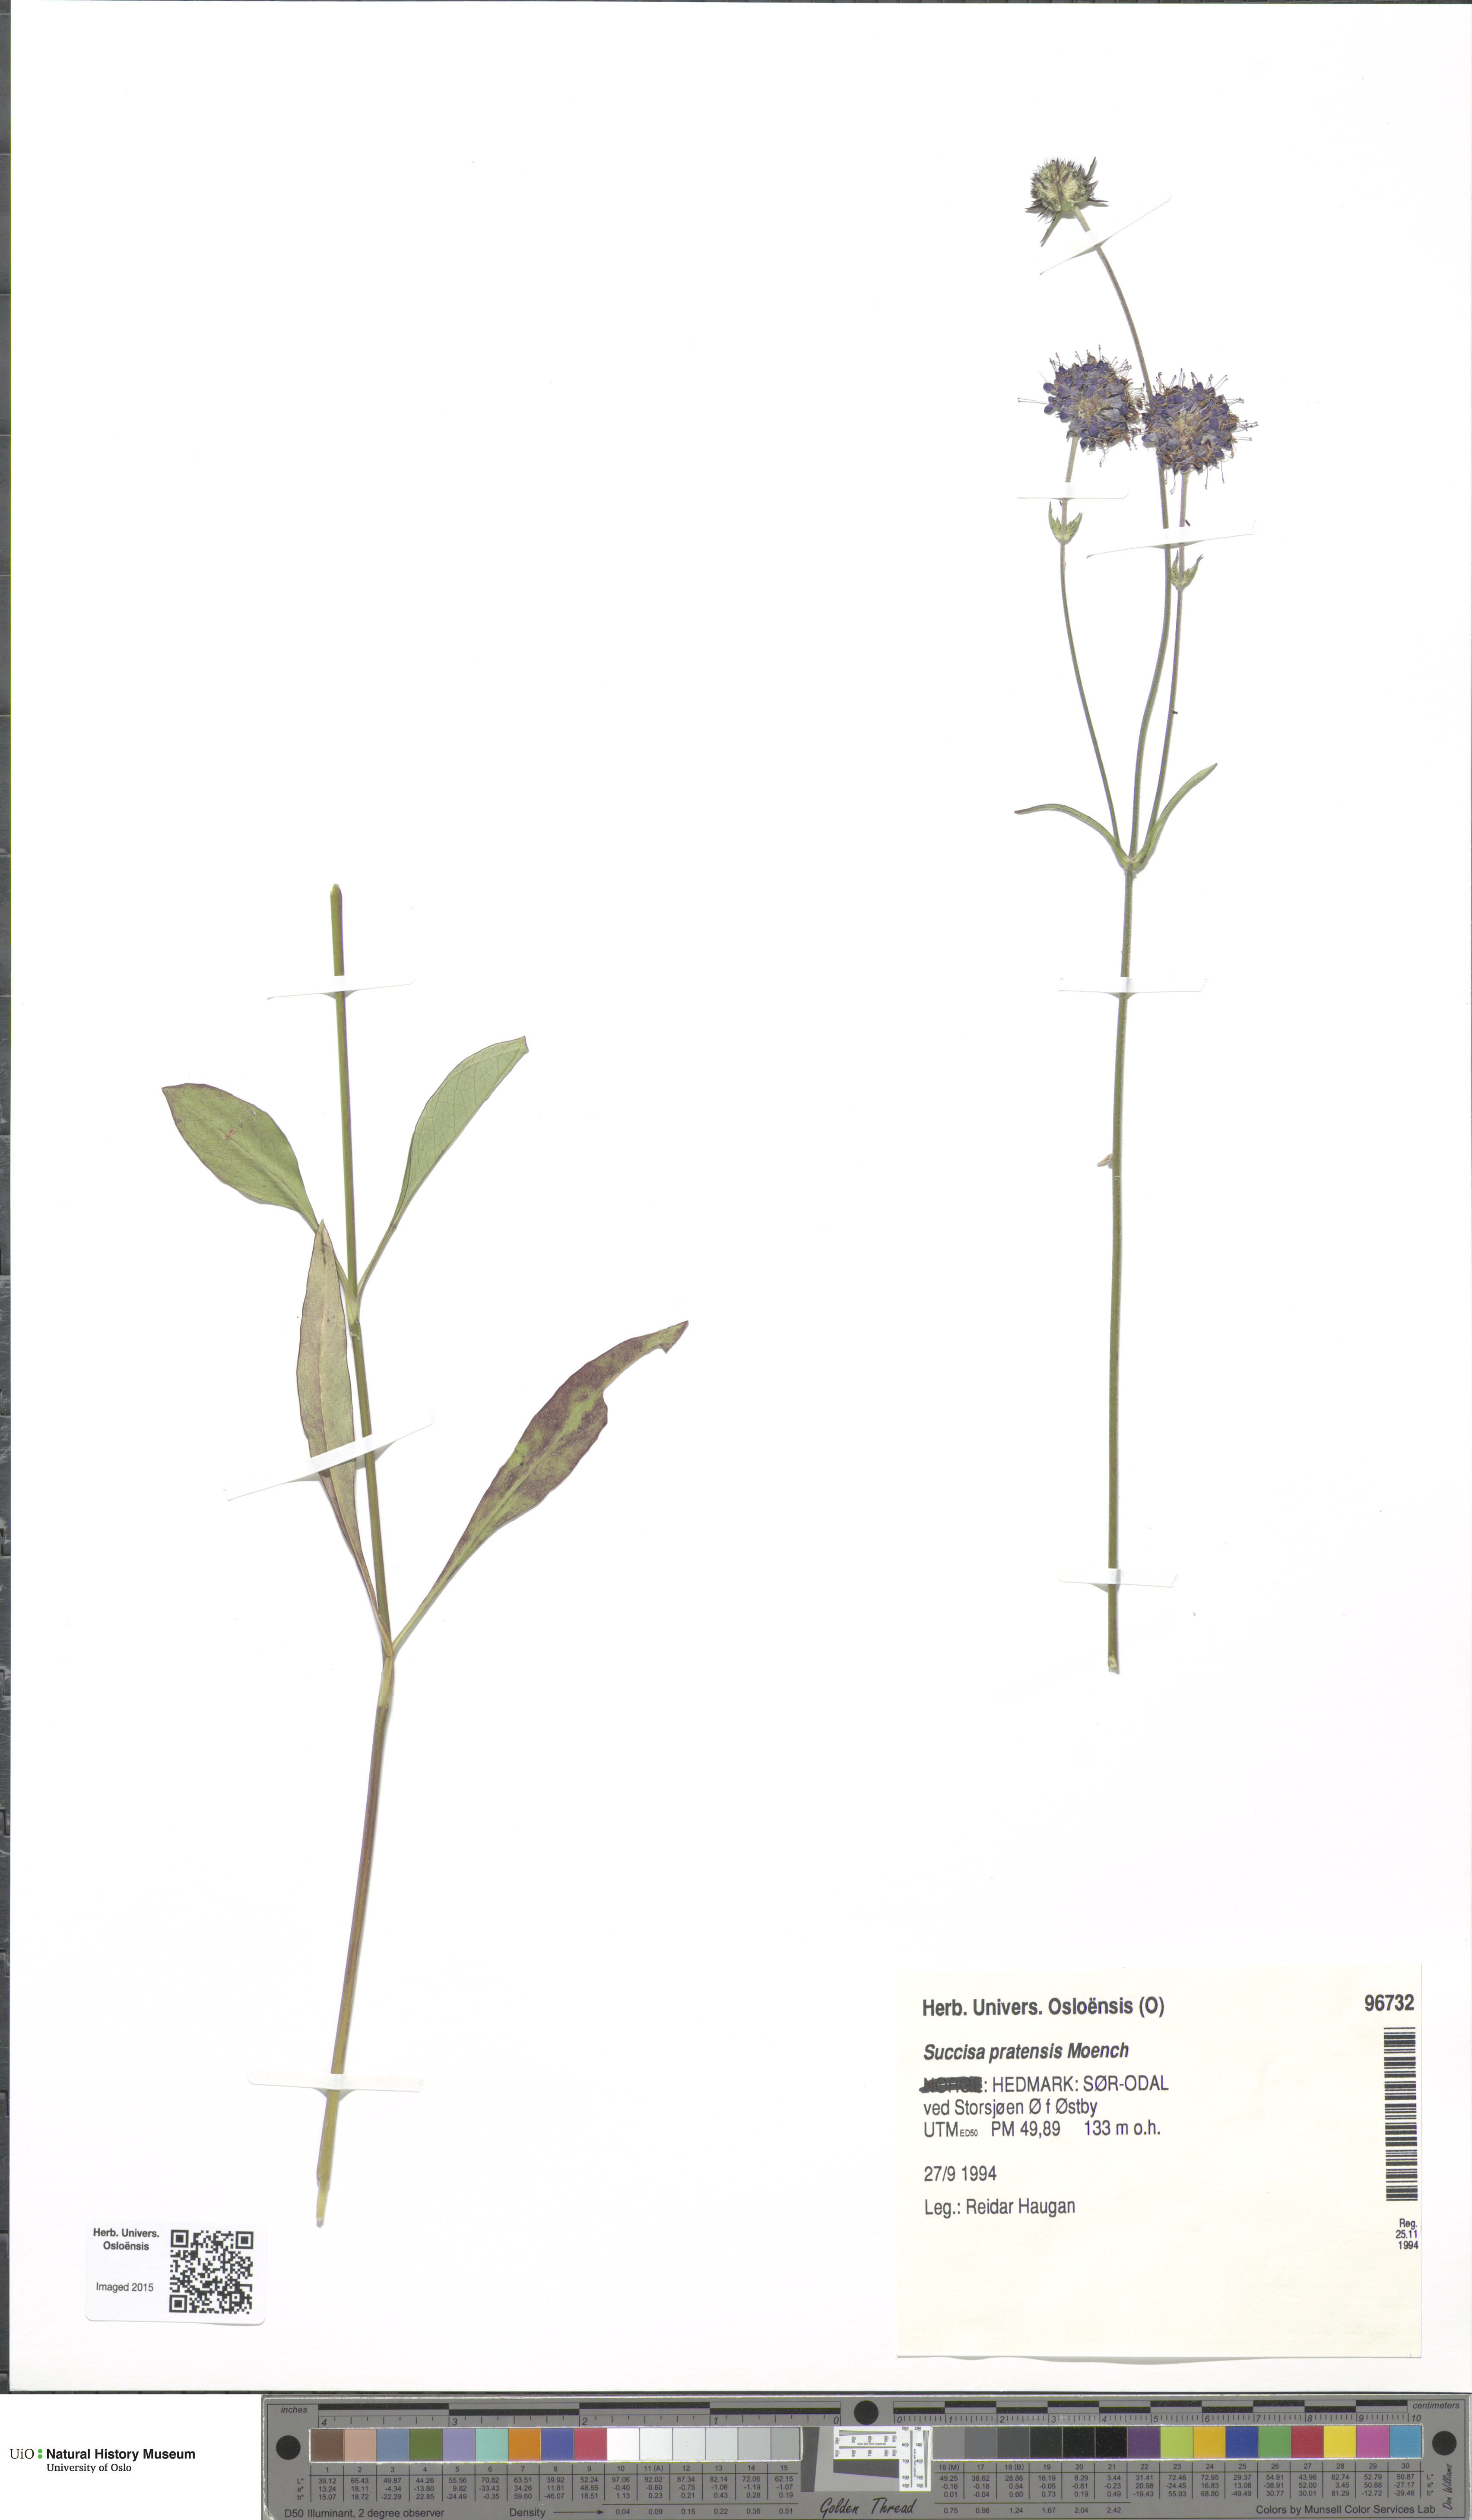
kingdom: Plantae
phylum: Tracheophyta
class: Magnoliopsida
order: Dipsacales
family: Caprifoliaceae
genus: Succisa
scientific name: Succisa pratensis
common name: Devil's-bit
